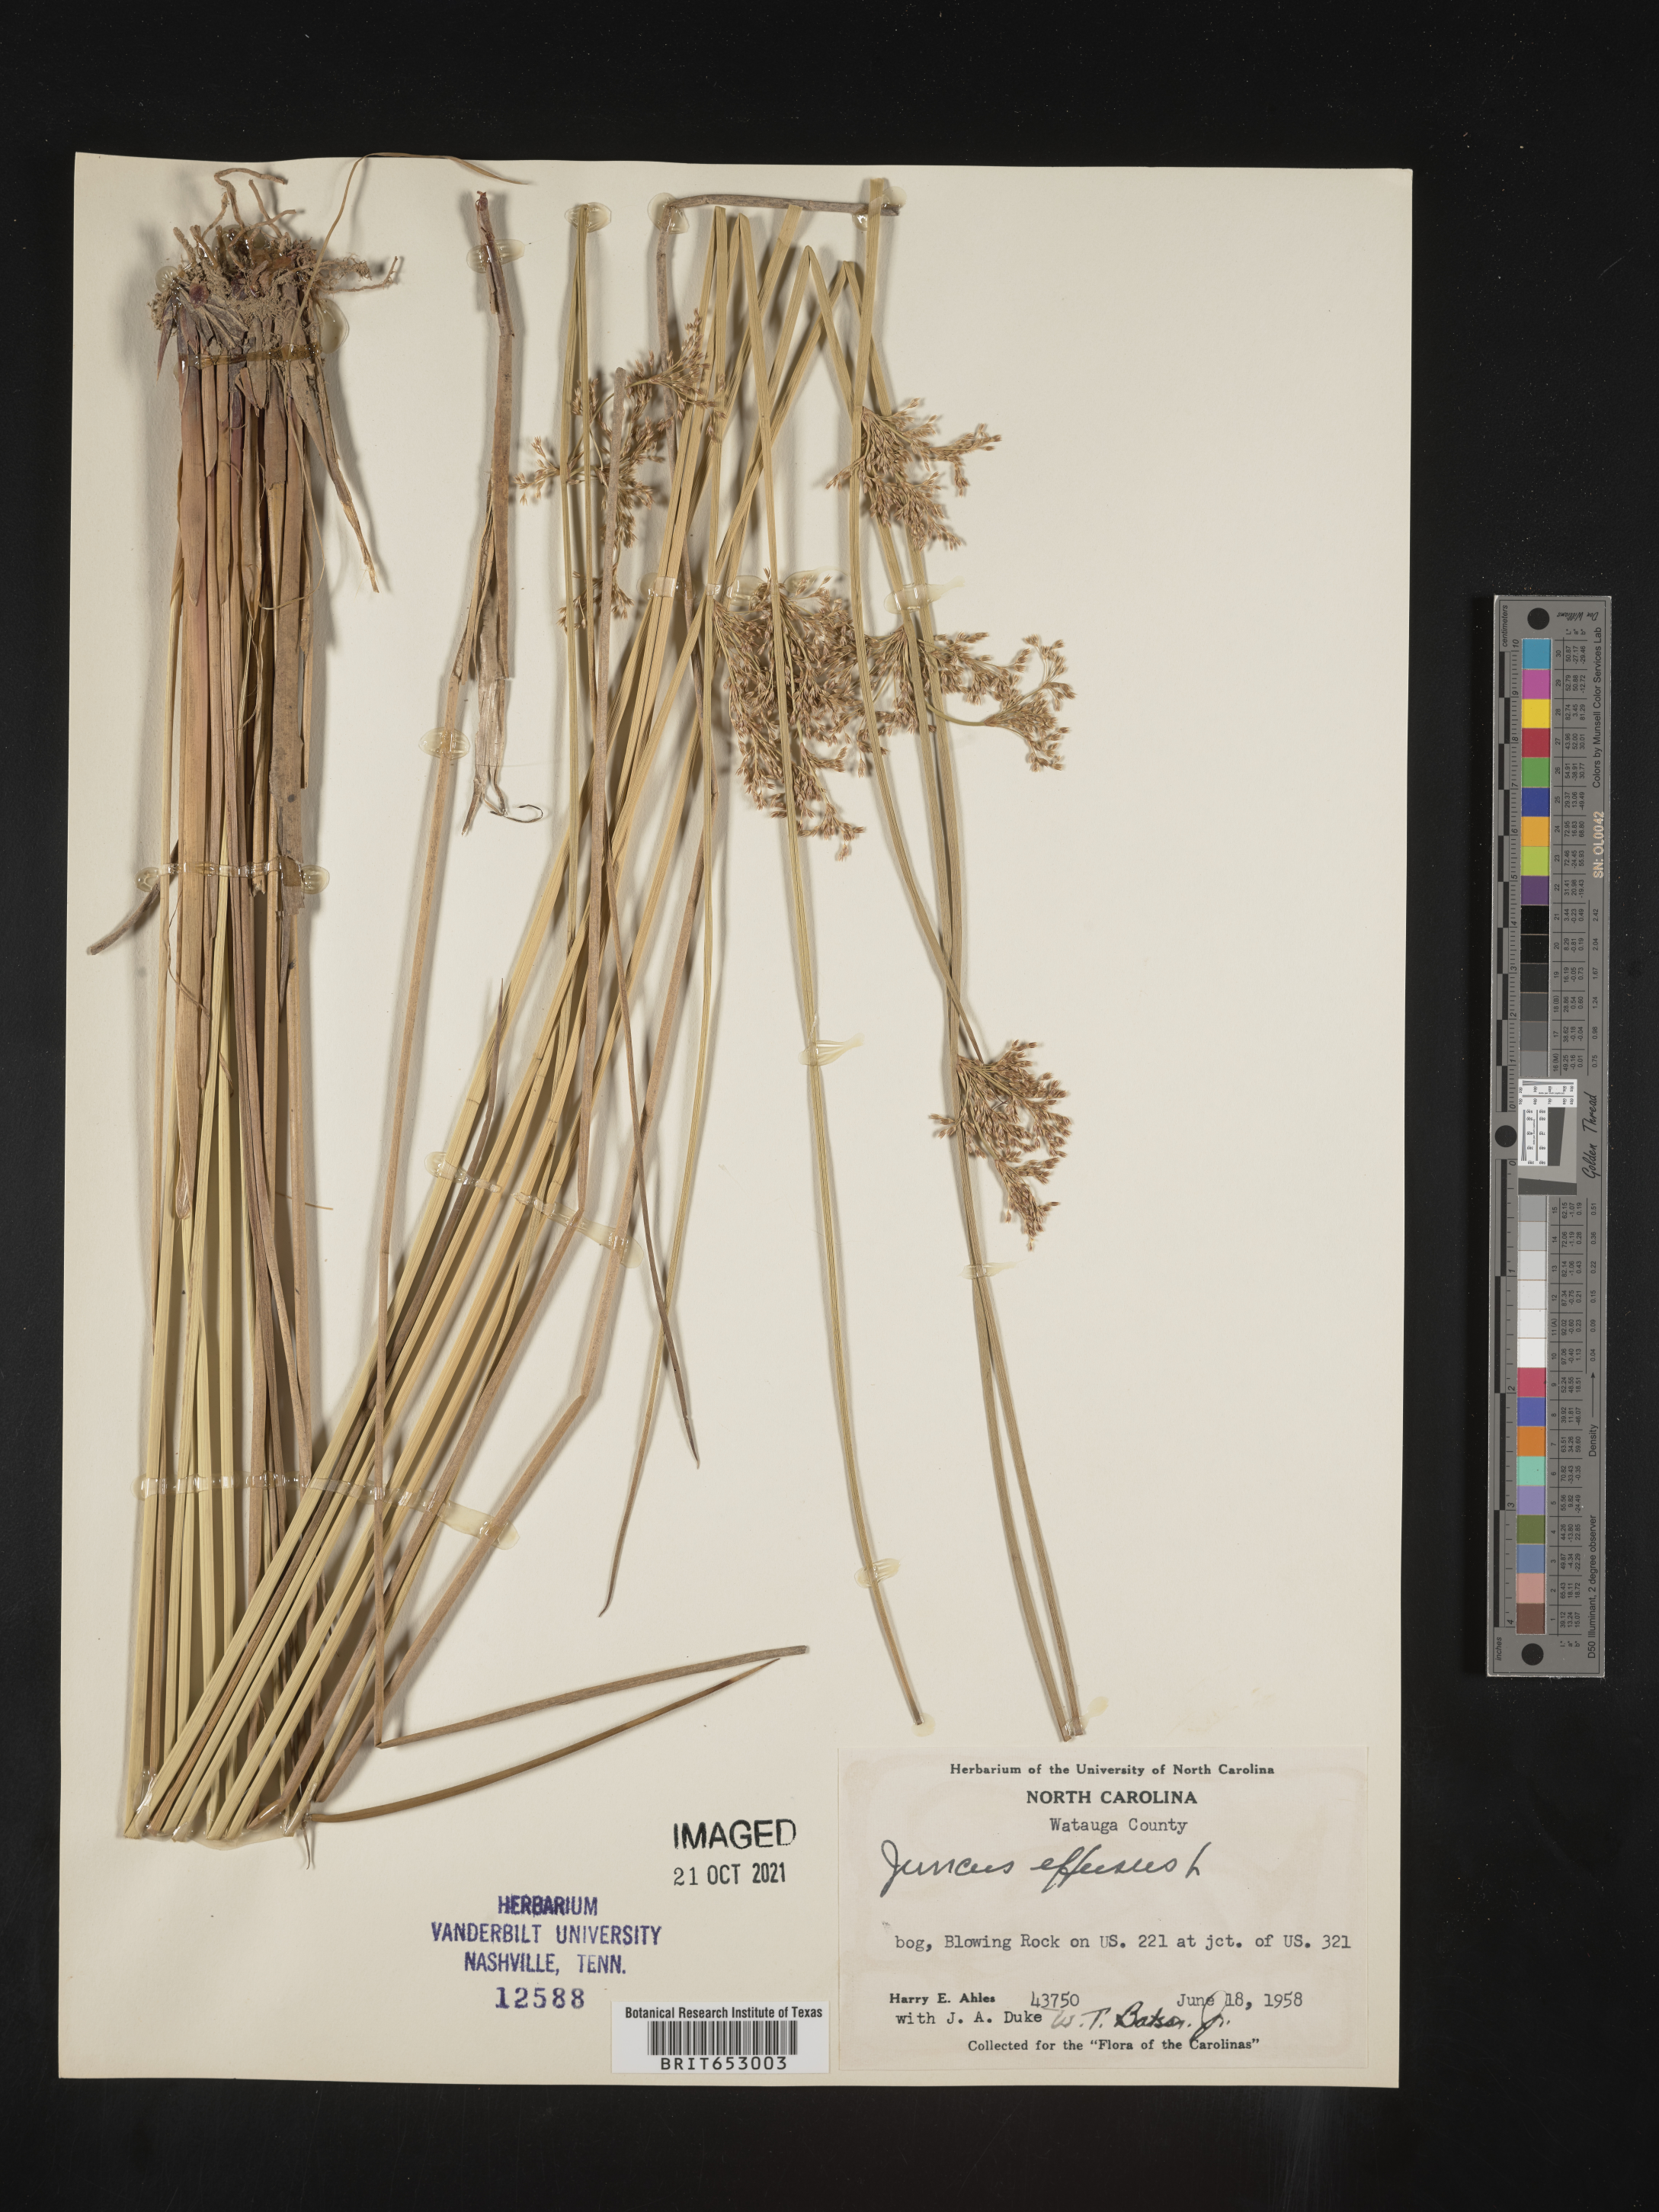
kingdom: Plantae
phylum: Tracheophyta
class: Liliopsida
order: Poales
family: Juncaceae
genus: Juncus
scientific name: Juncus effusus
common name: Soft rush
